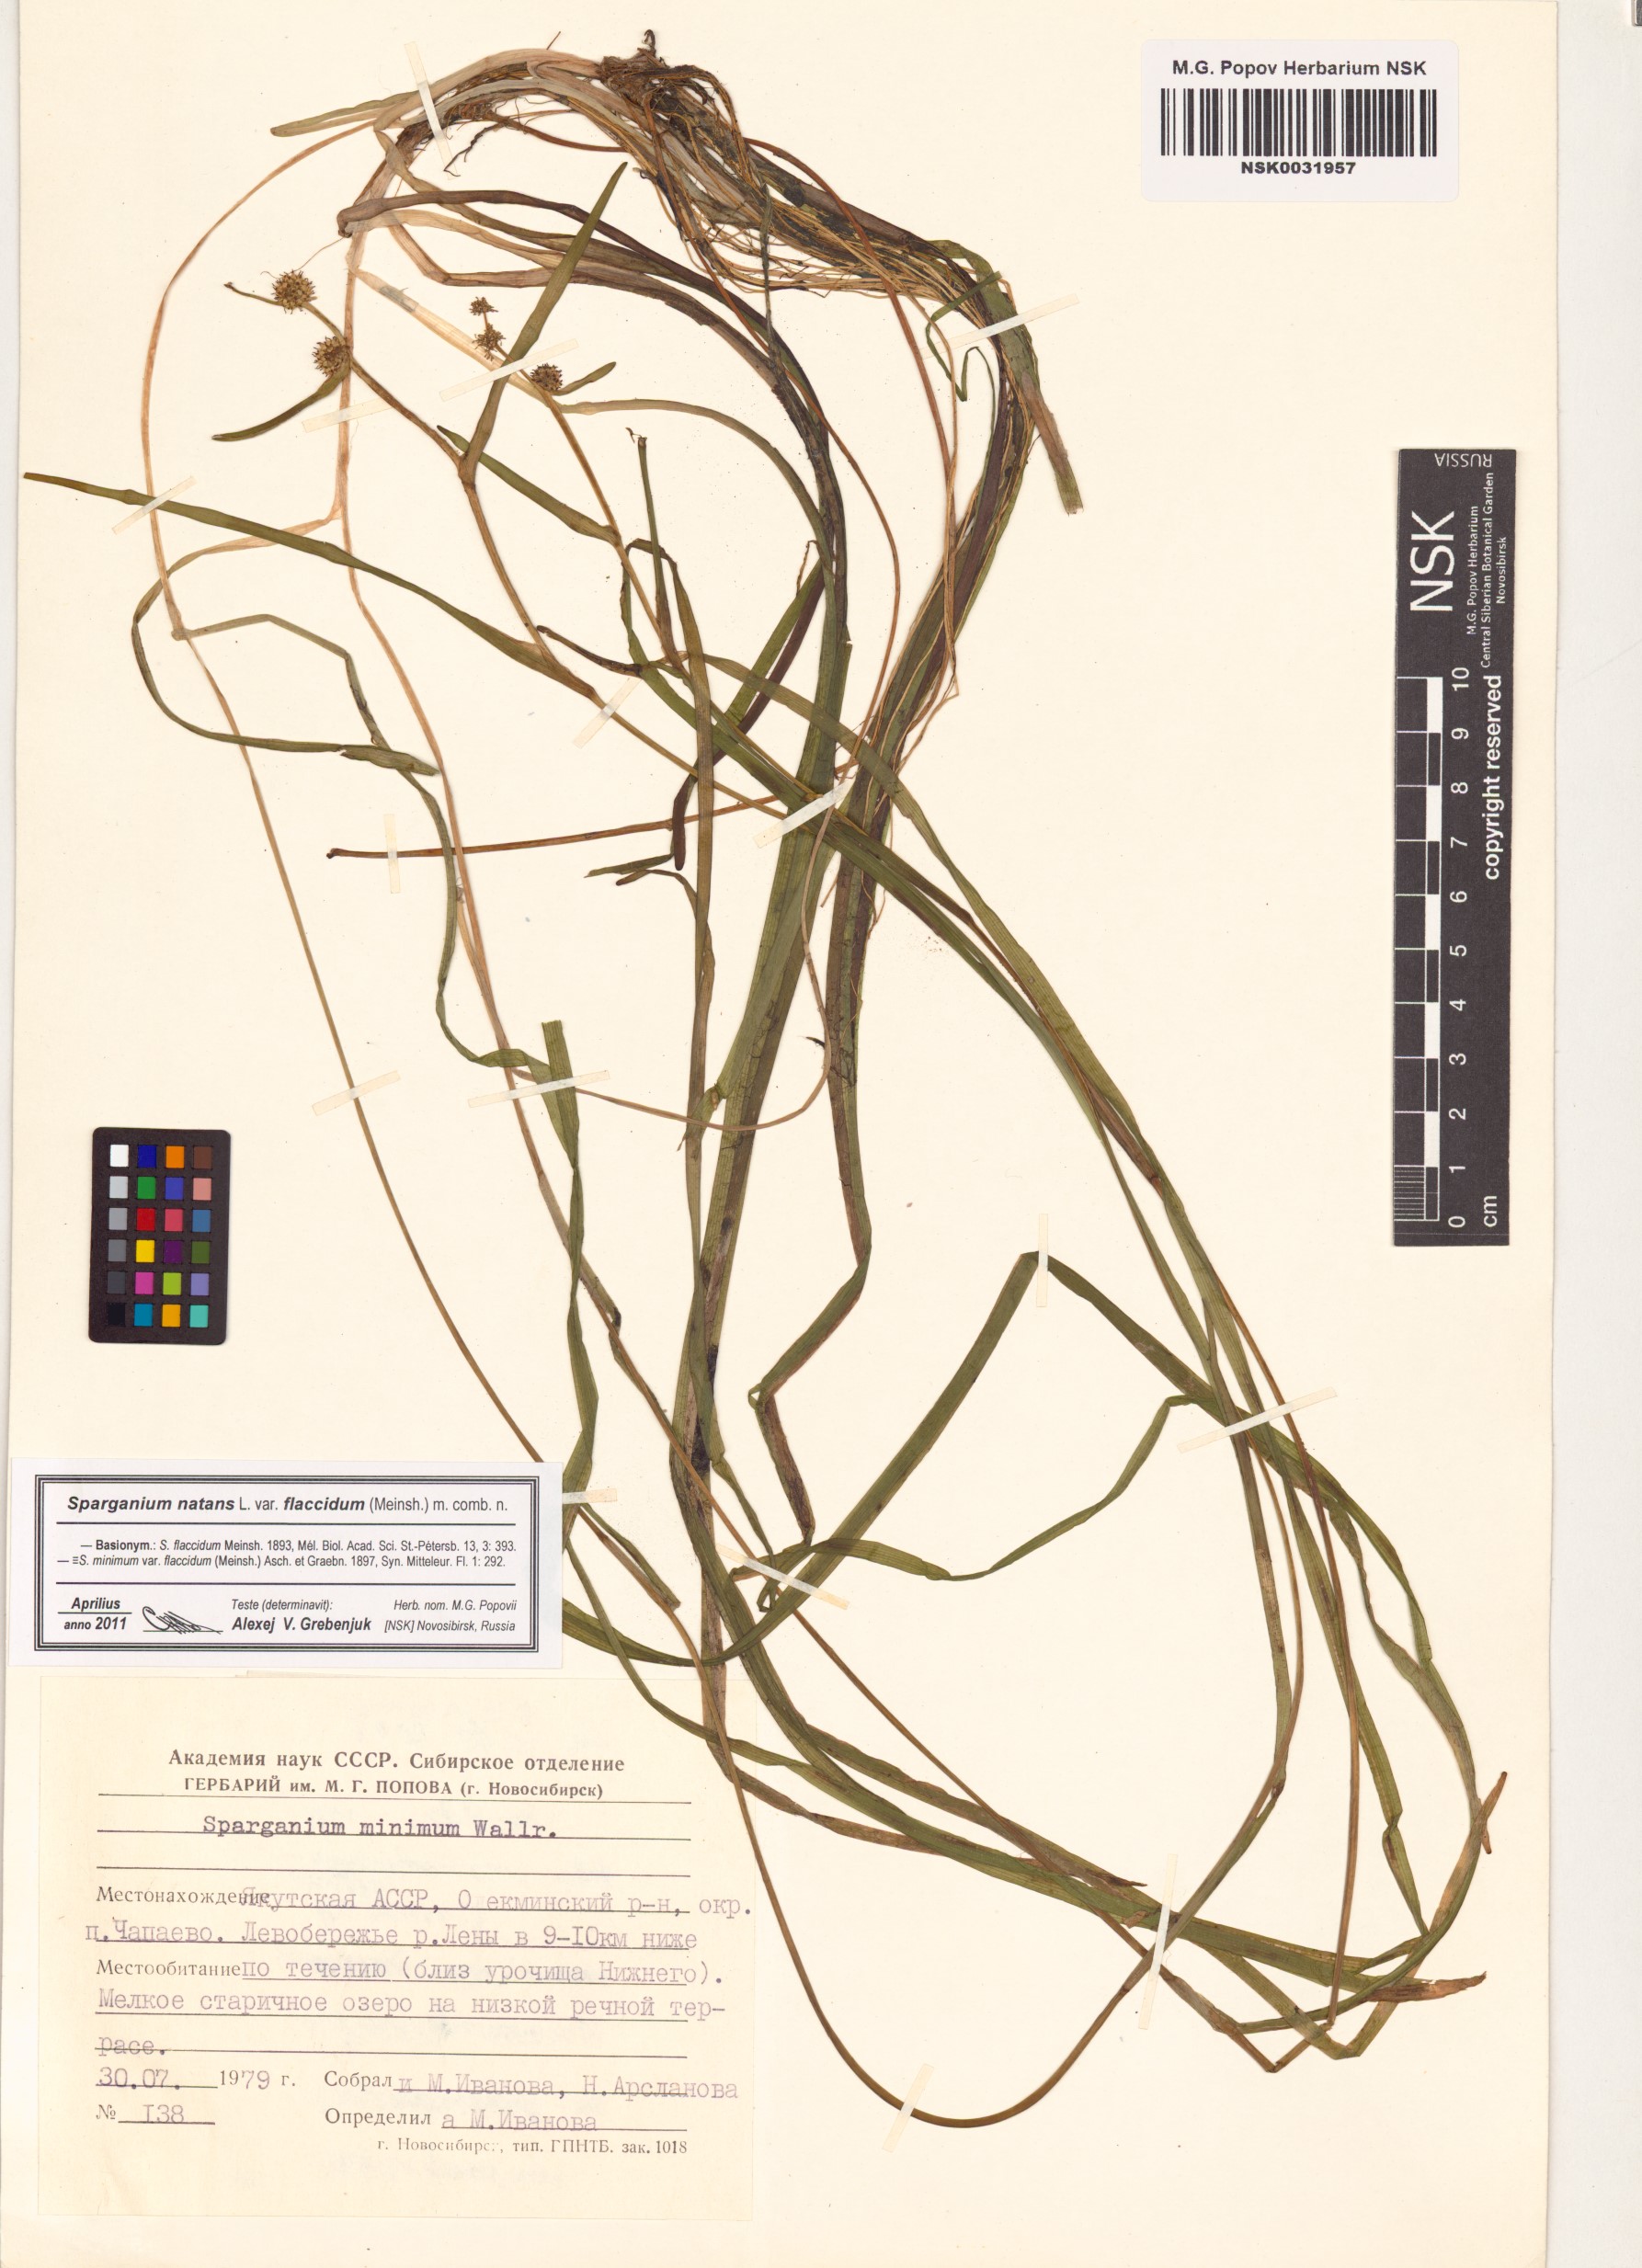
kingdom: Plantae
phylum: Tracheophyta
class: Liliopsida
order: Poales
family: Typhaceae
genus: Sparganium
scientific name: Sparganium natans
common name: Least bur-reed
